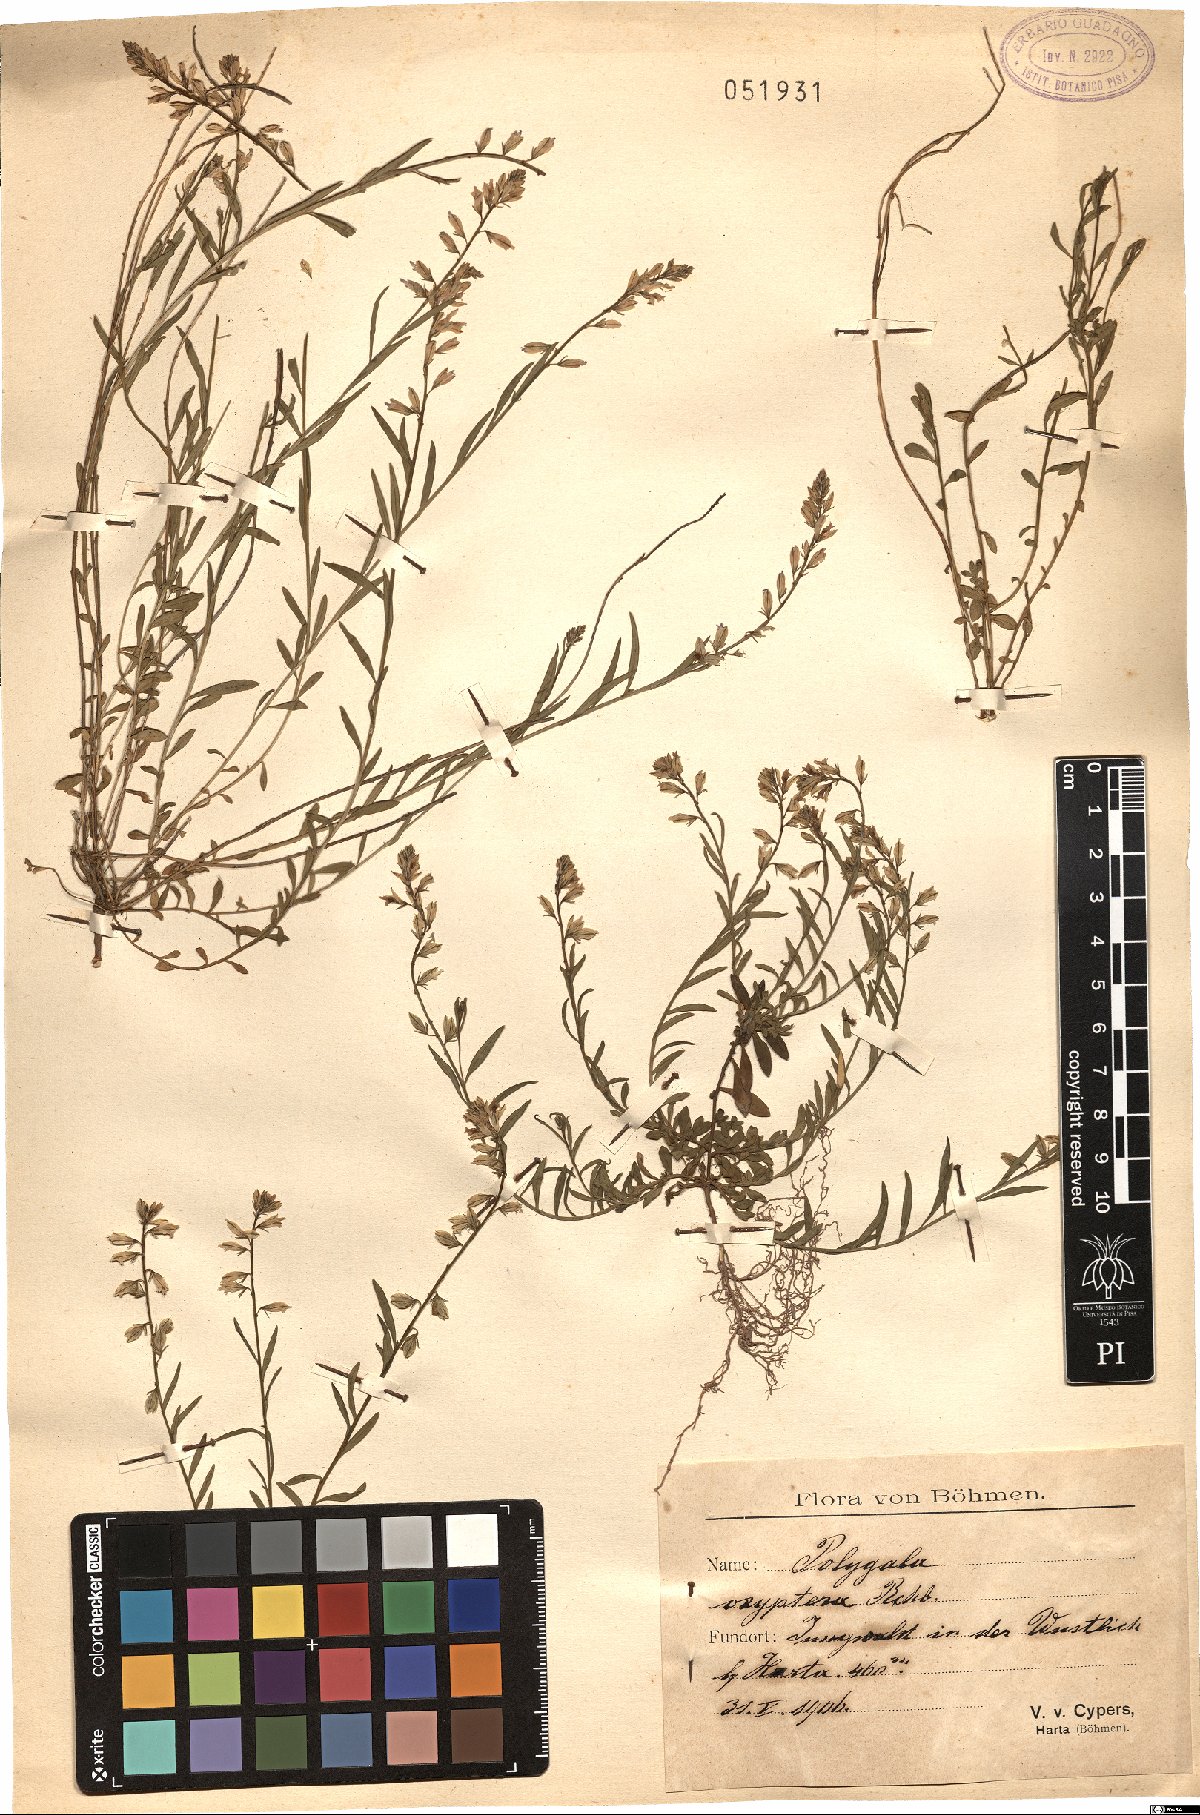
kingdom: Plantae
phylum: Tracheophyta
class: Magnoliopsida
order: Fabales
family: Polygalaceae
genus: Polygala
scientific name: Polygala vulgaris
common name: Common milkwort
